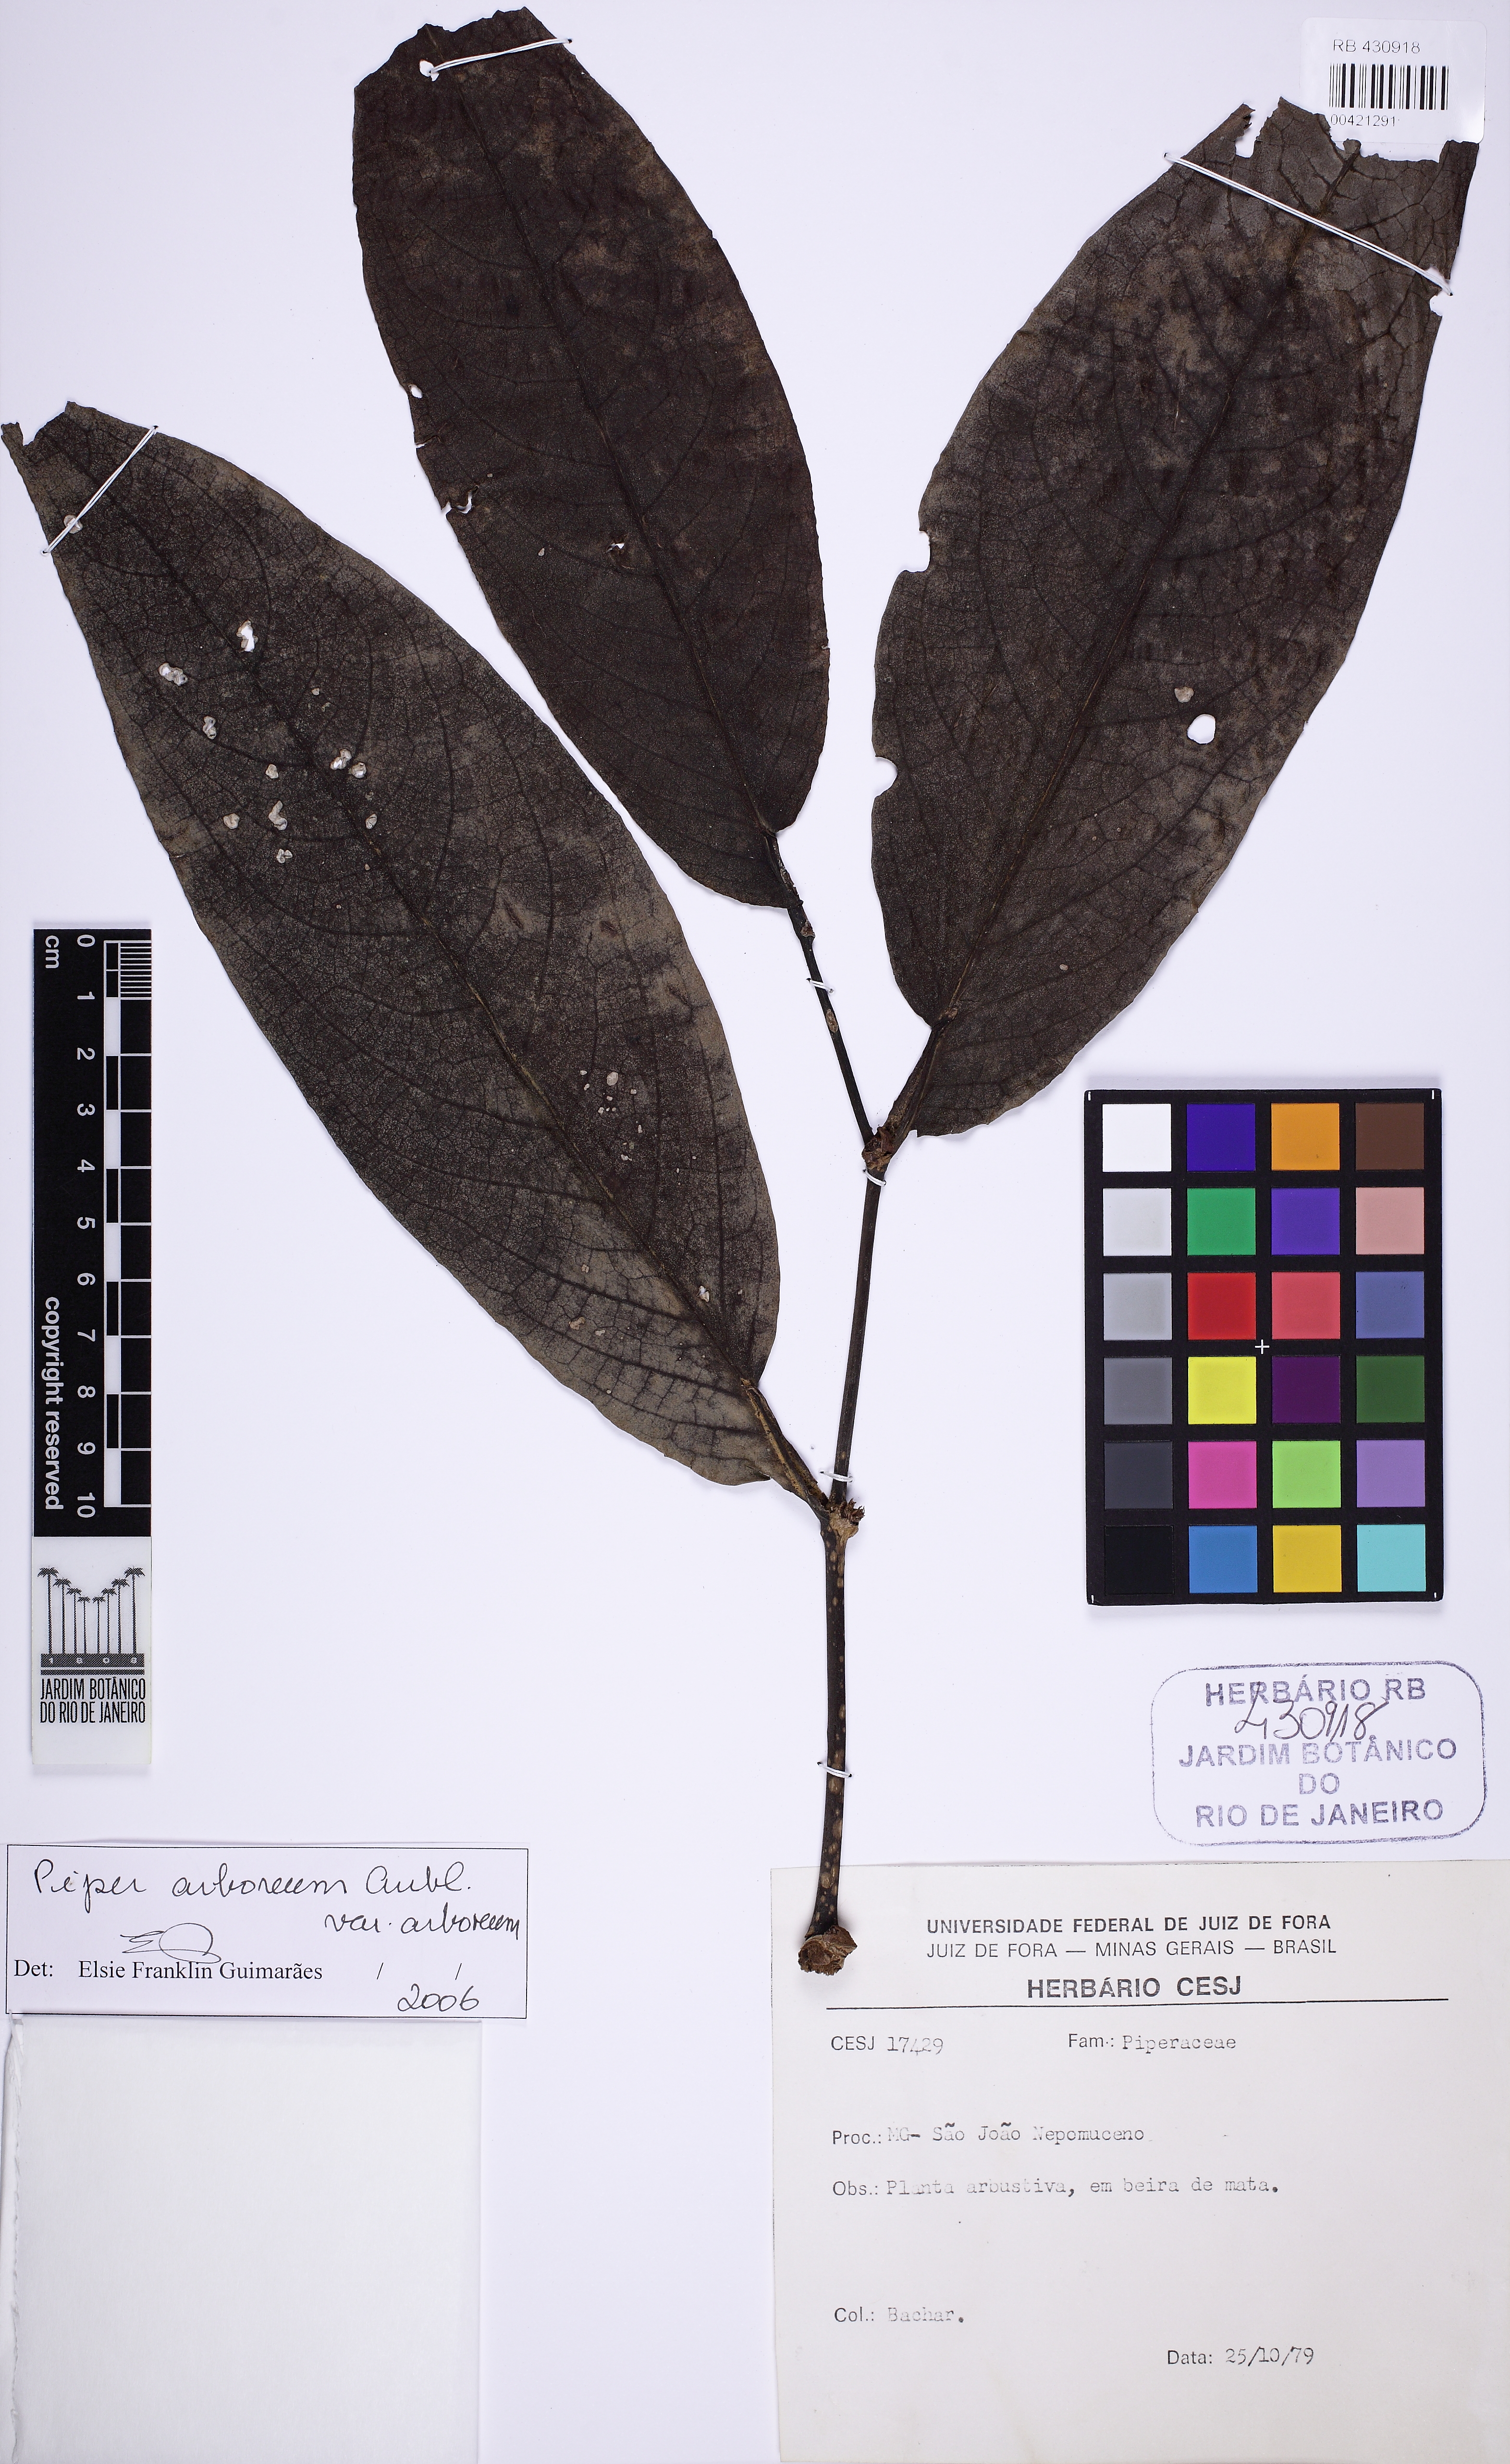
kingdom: Plantae
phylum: Tracheophyta
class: Magnoliopsida
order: Piperales
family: Piperaceae
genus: Piper
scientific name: Piper arboreum
